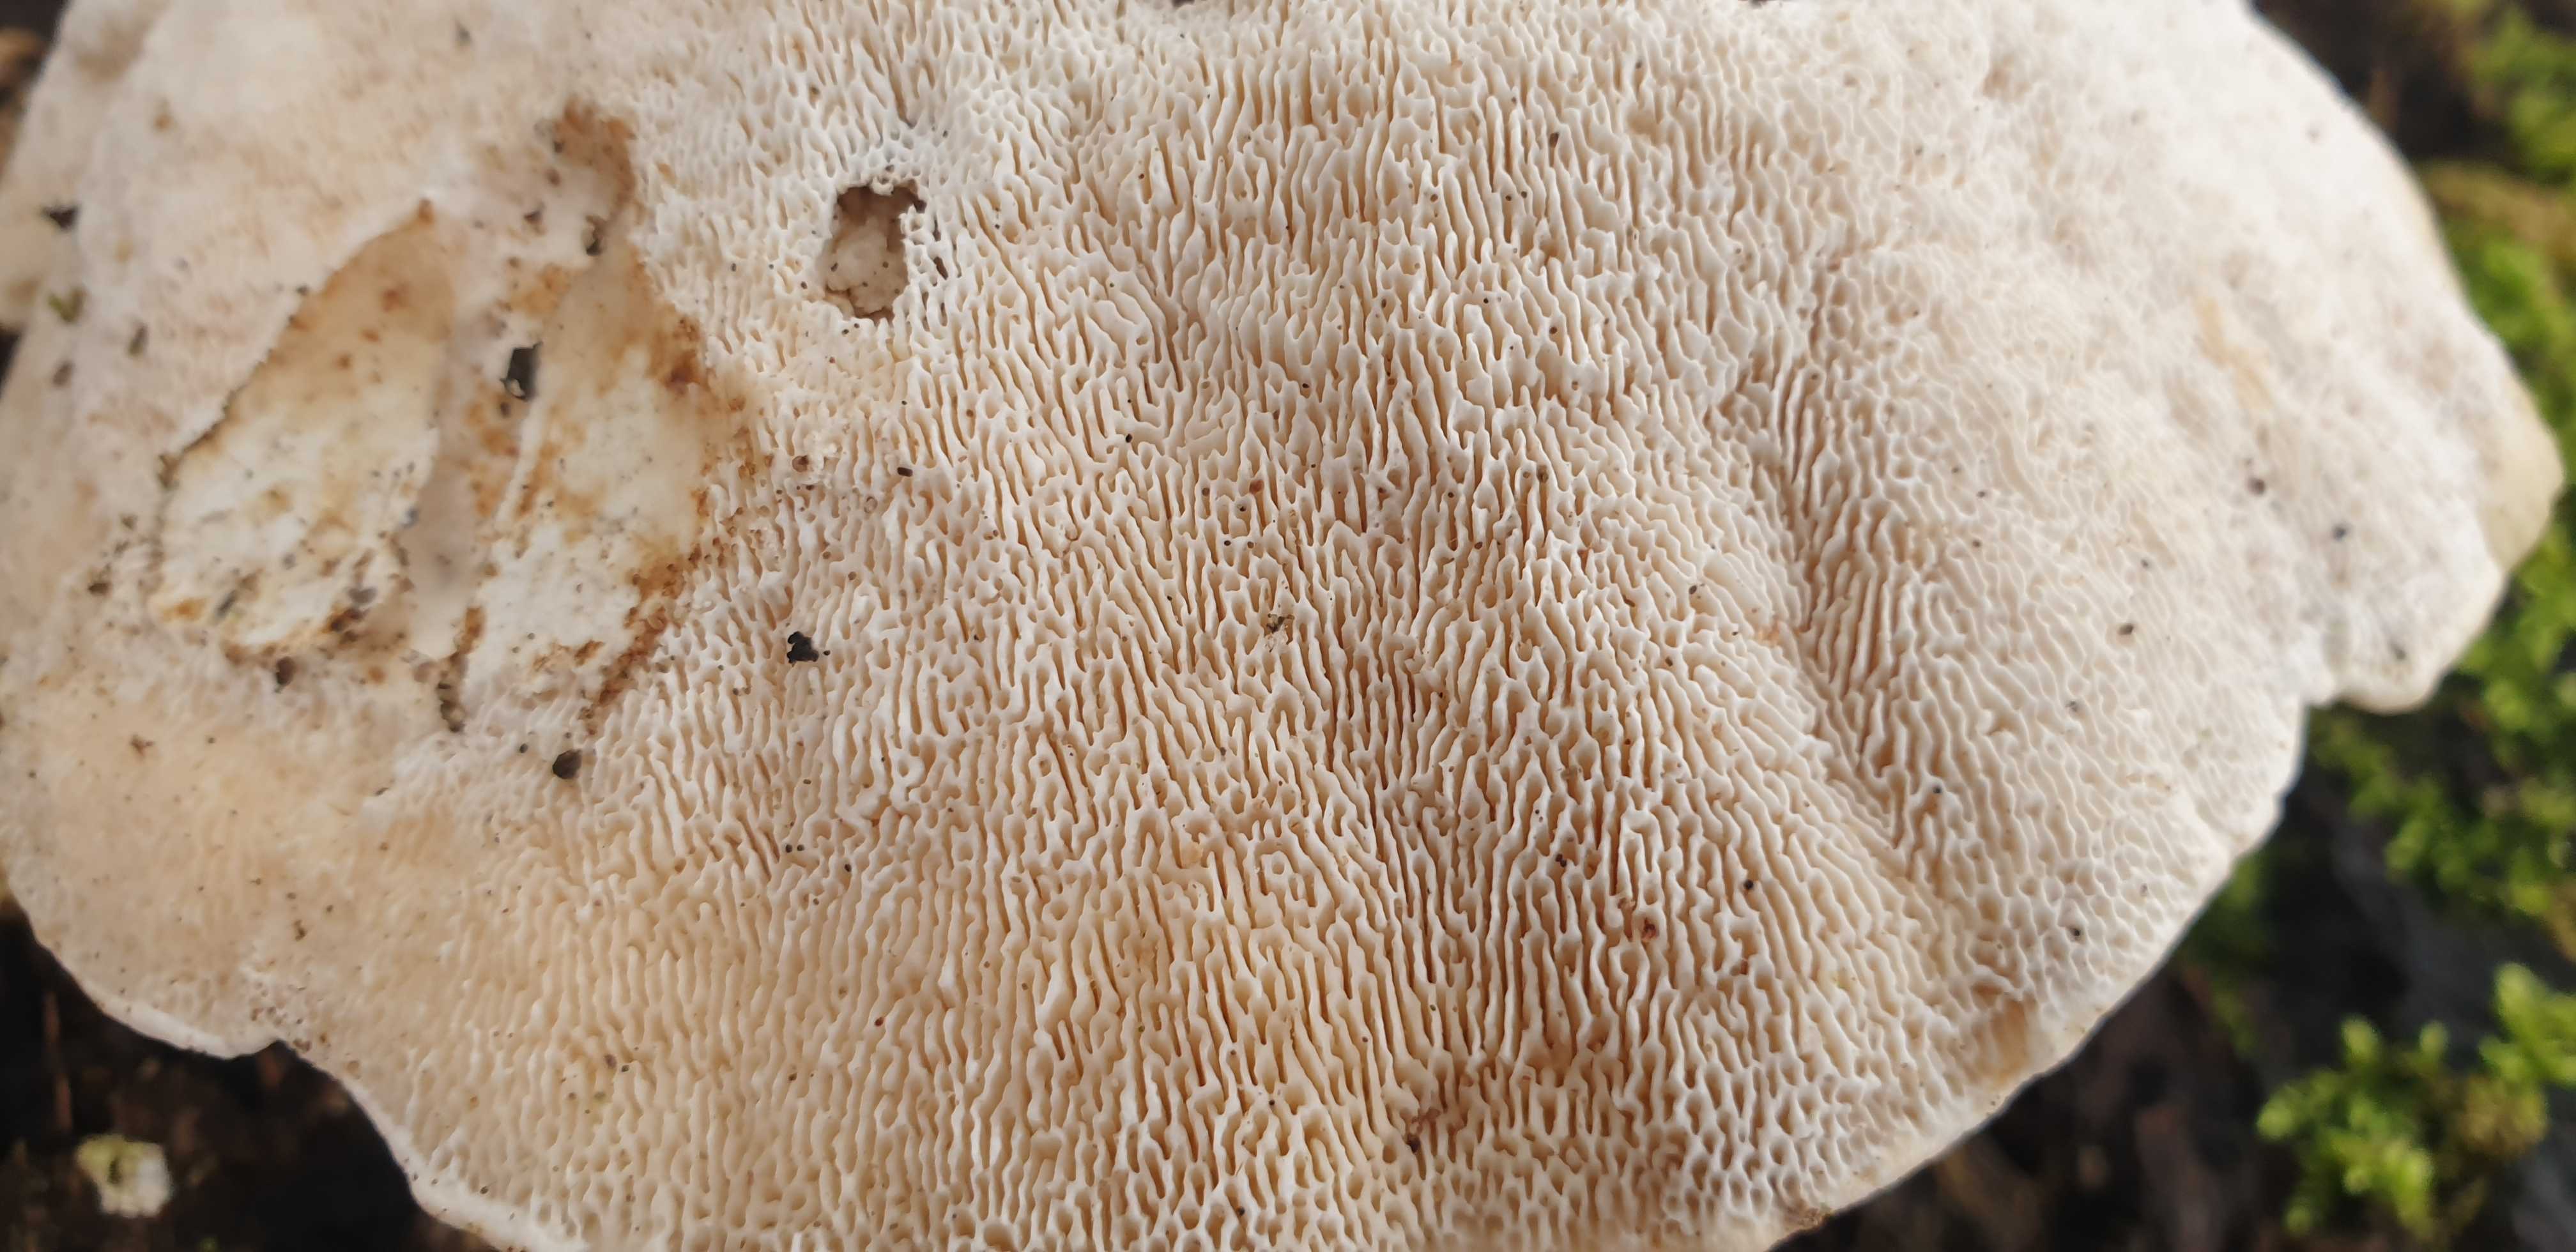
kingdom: Fungi
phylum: Basidiomycota
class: Agaricomycetes
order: Polyporales
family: Polyporaceae
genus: Trametes
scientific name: Trametes gibbosa
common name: puklet læderporesvamp
